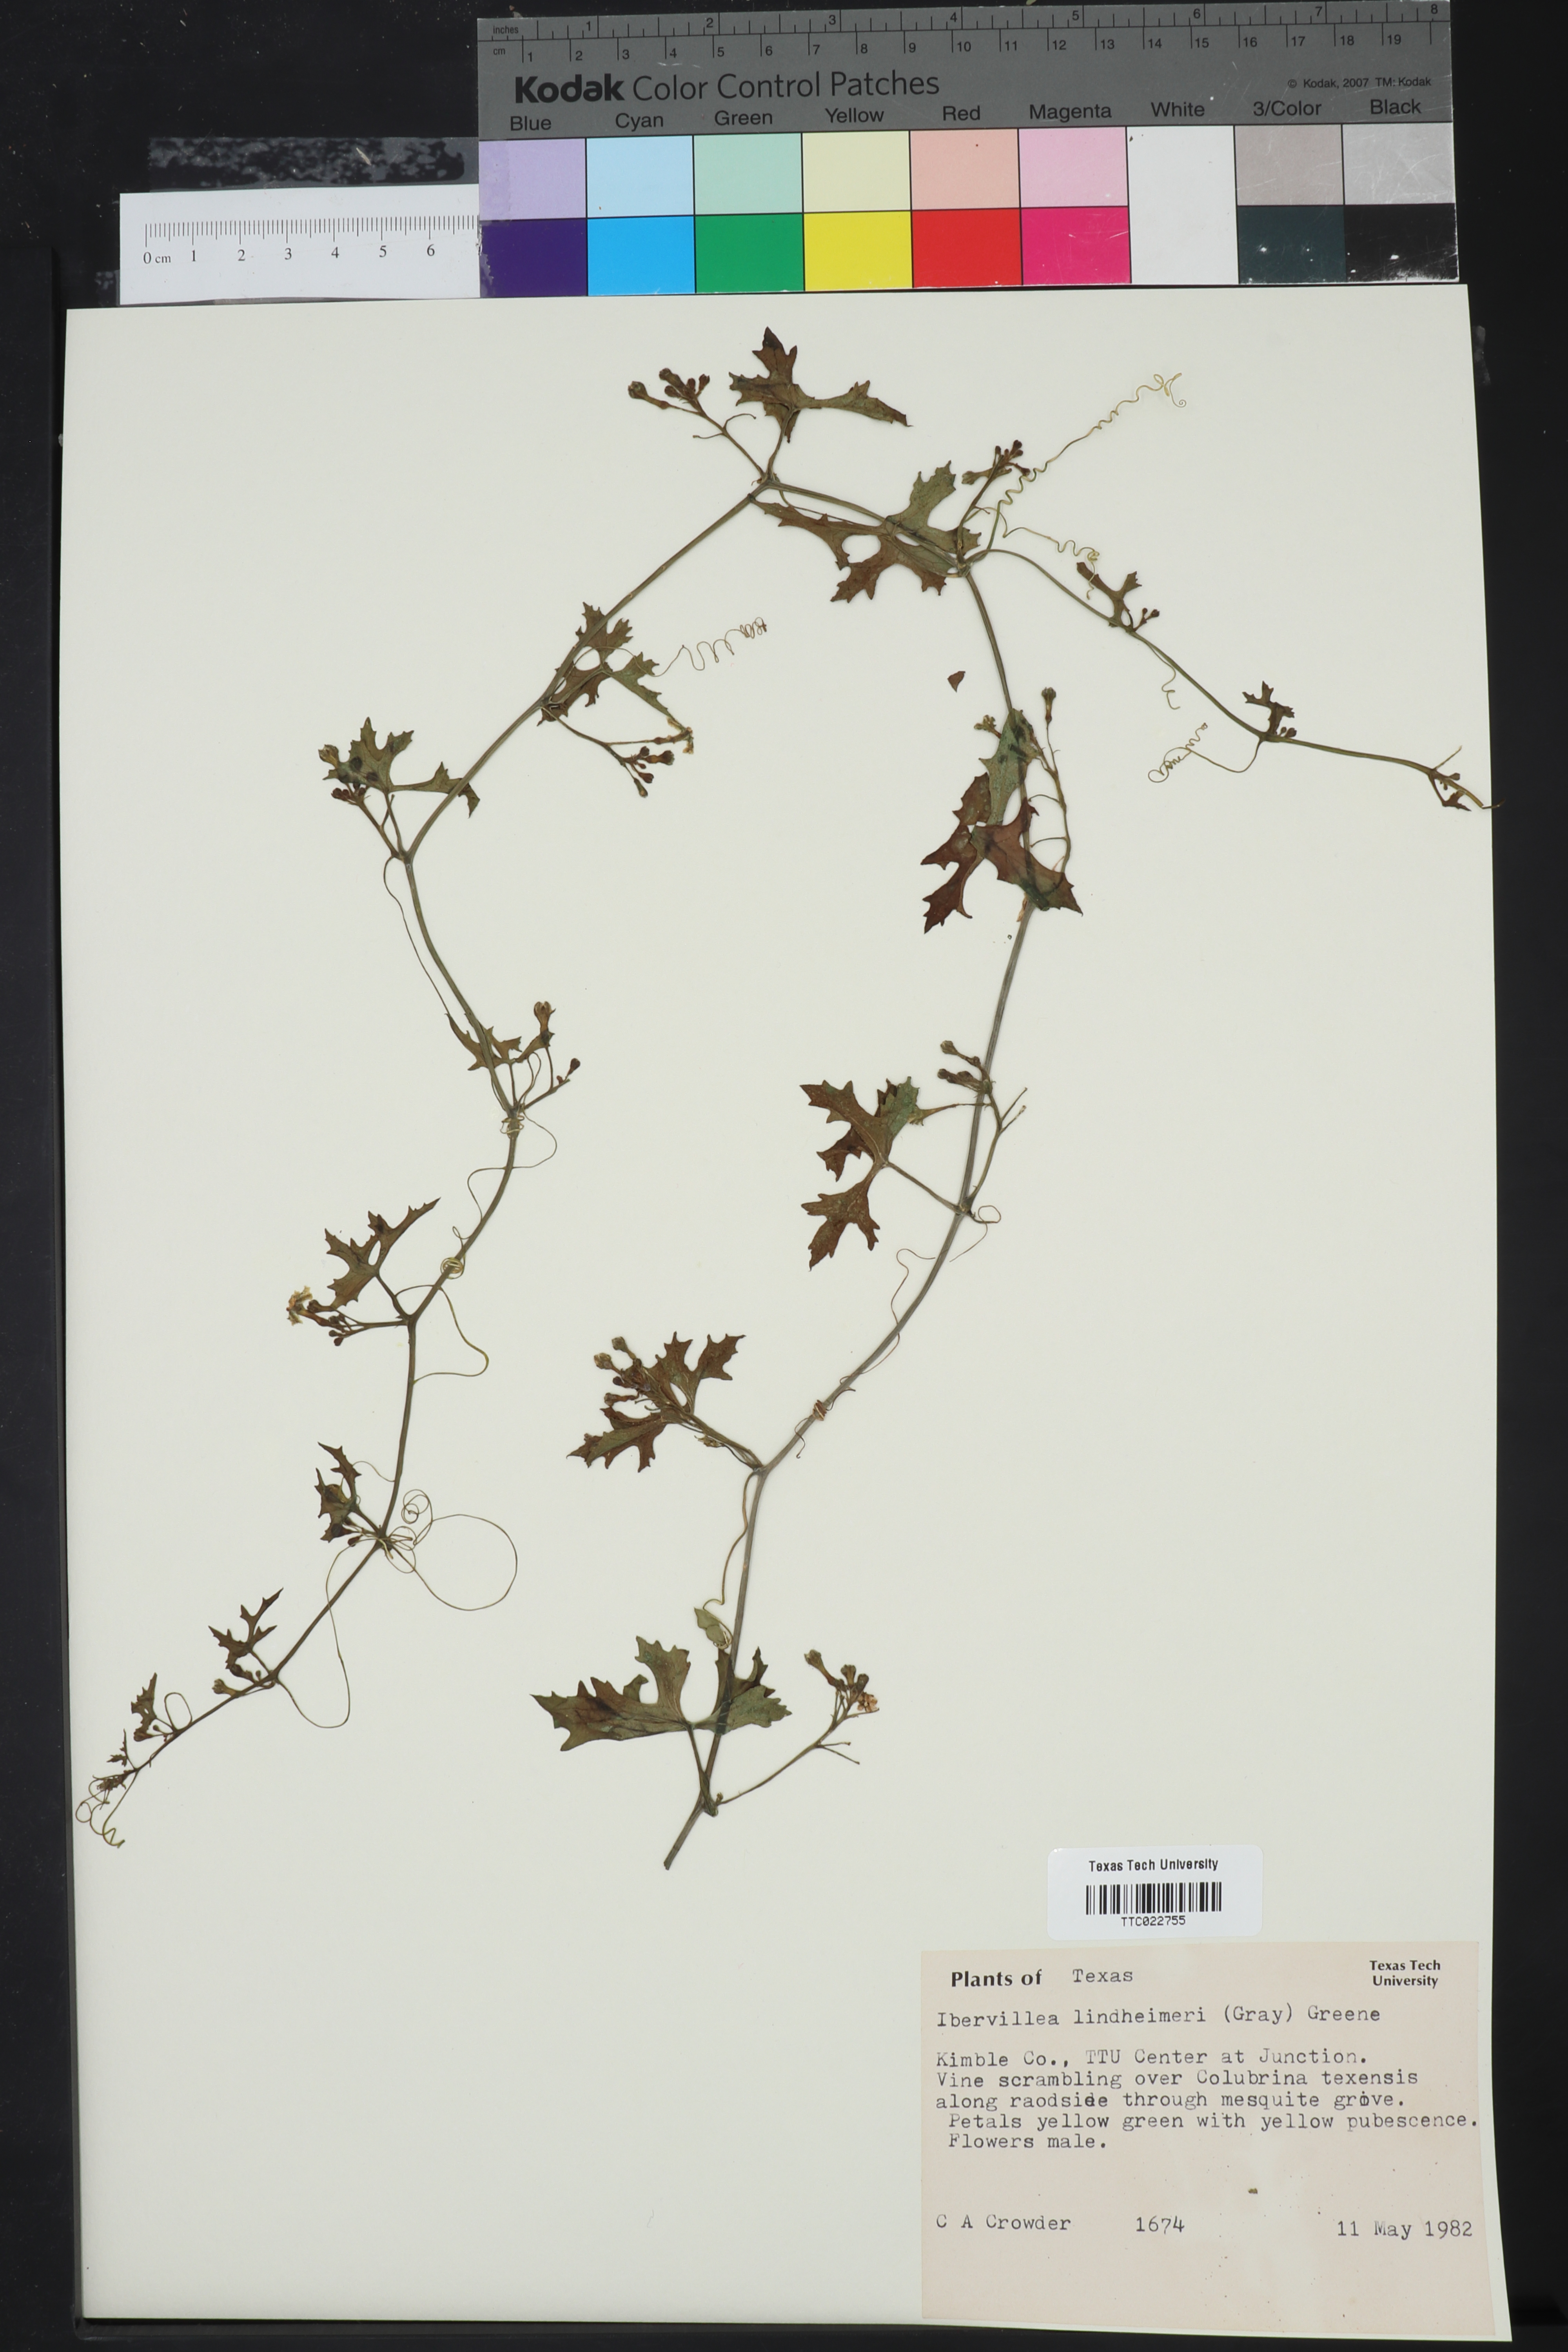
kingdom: Plantae
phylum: Tracheophyta
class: Magnoliopsida
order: Cucurbitales
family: Cucurbitaceae
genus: Ibervillea
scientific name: Ibervillea lindheimeri
